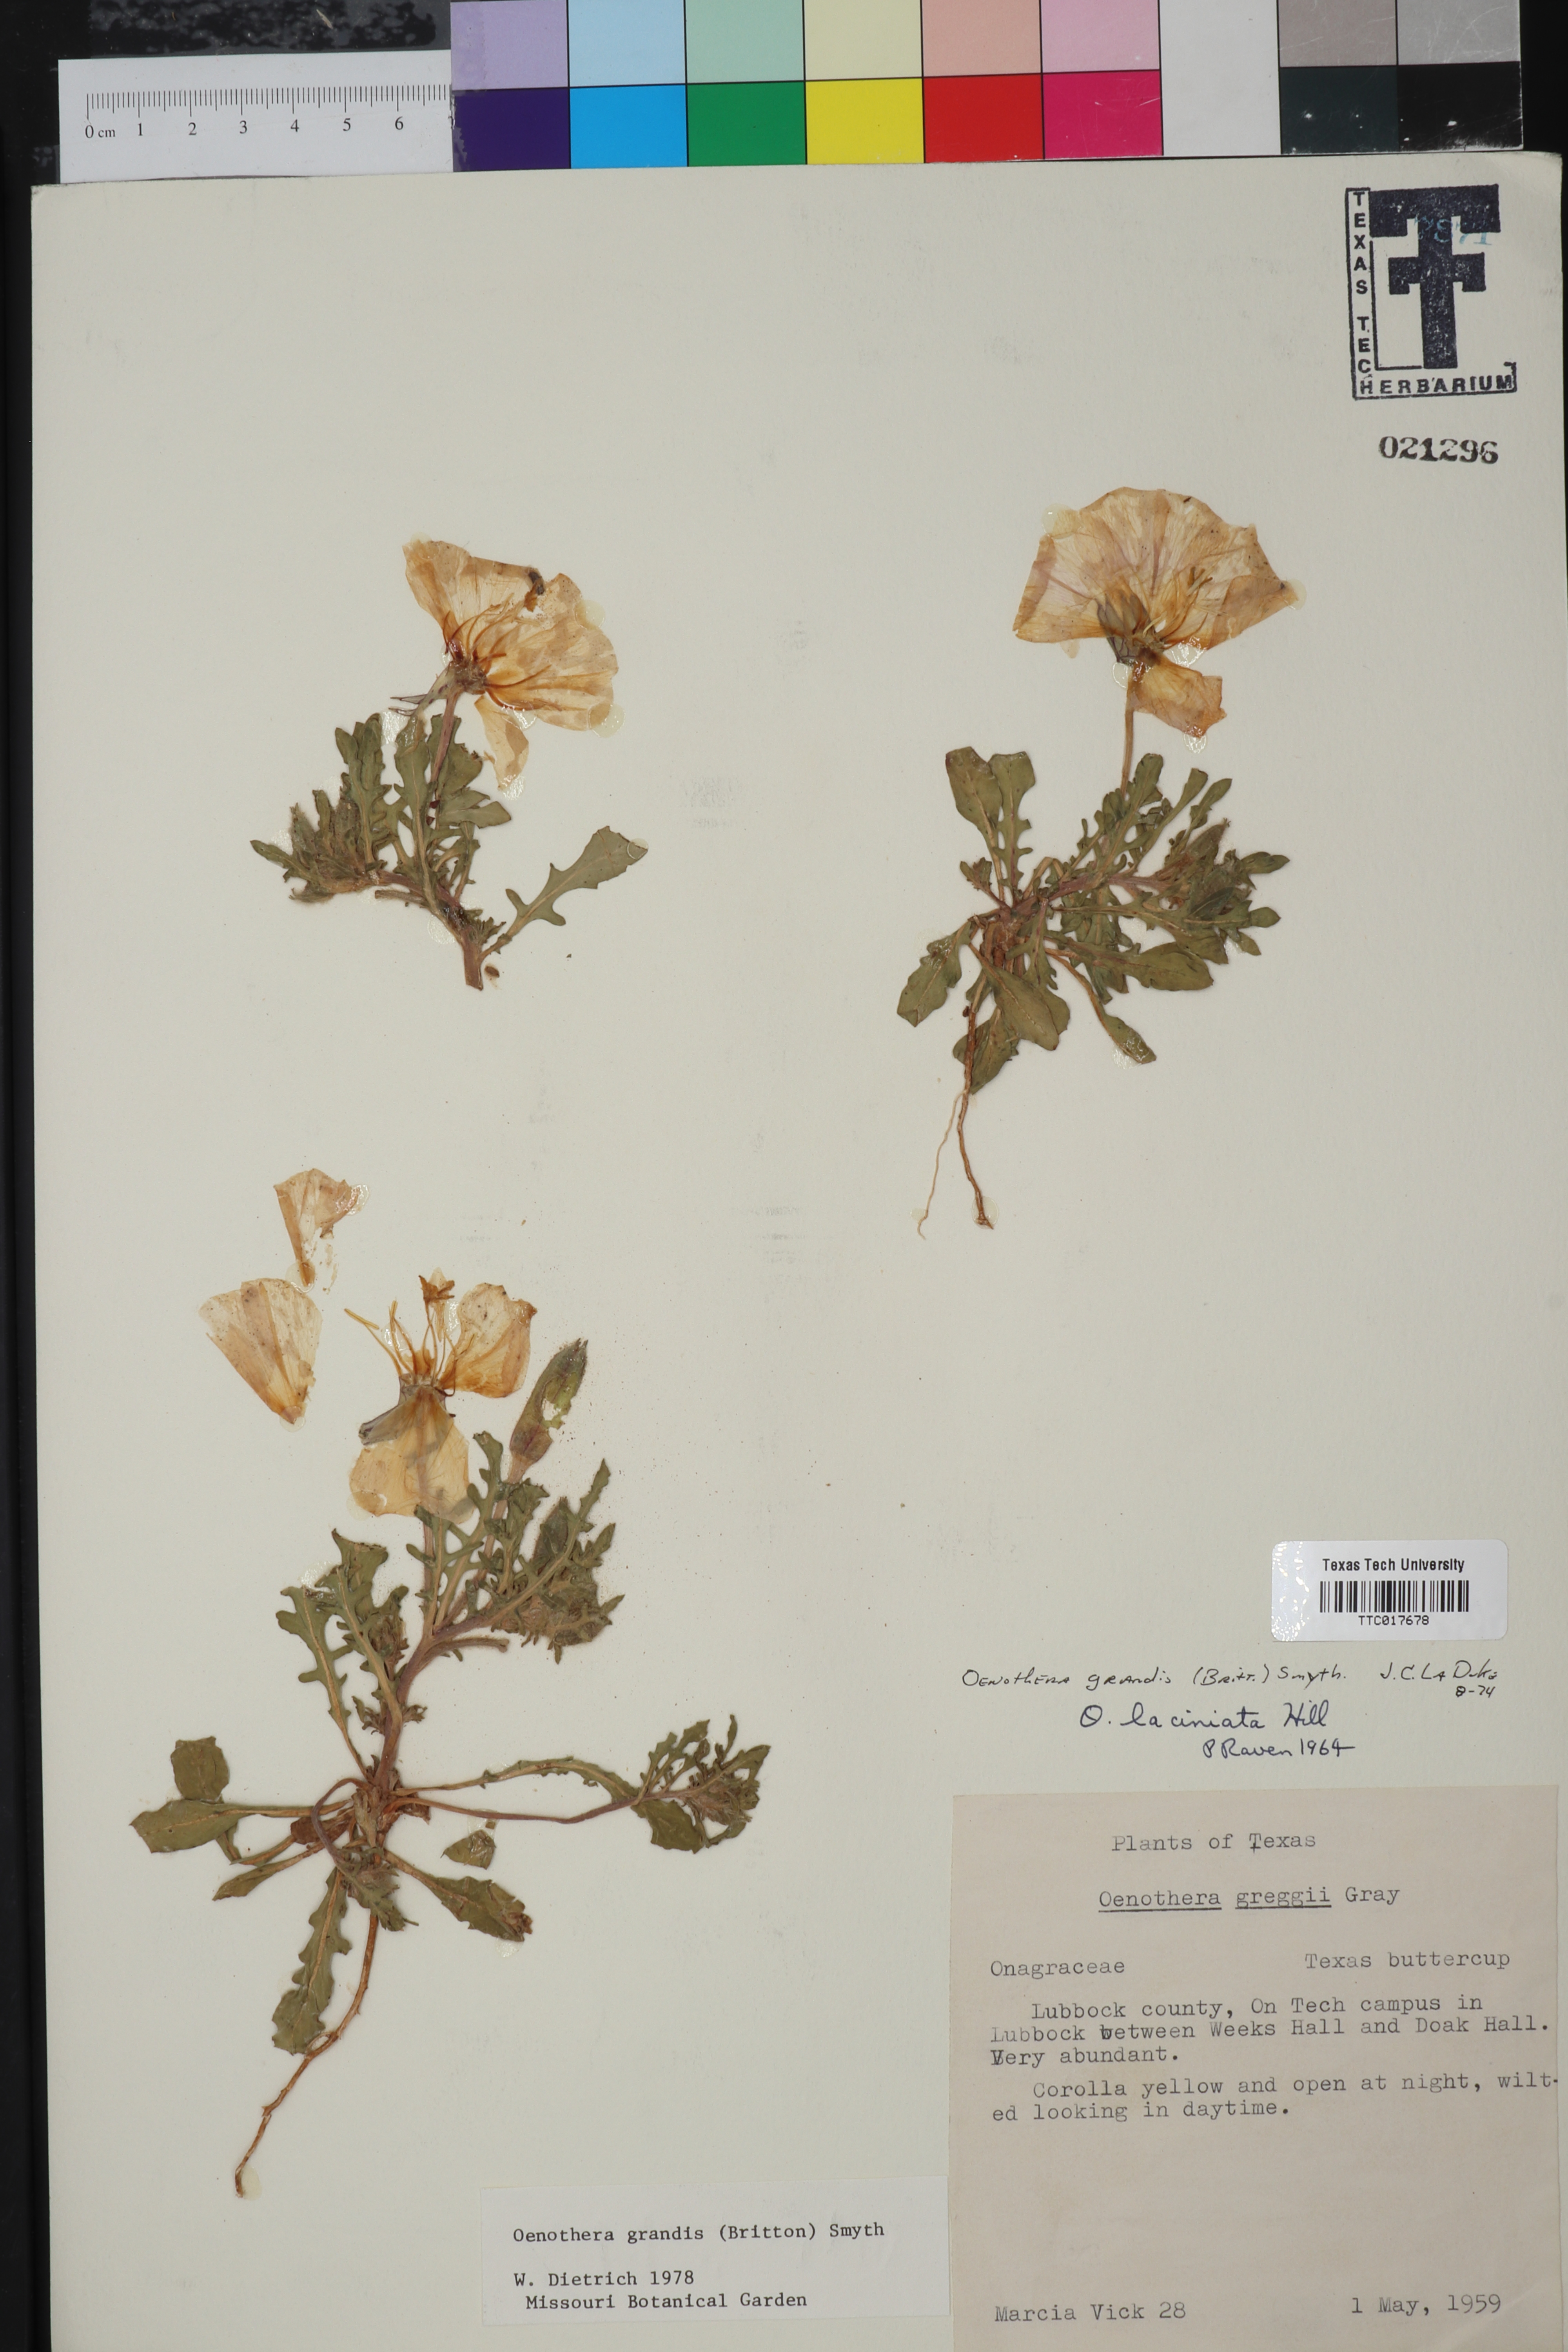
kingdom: Plantae
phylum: Tracheophyta
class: Magnoliopsida
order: Myrtales
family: Onagraceae
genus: Oenothera
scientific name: Oenothera grandis
